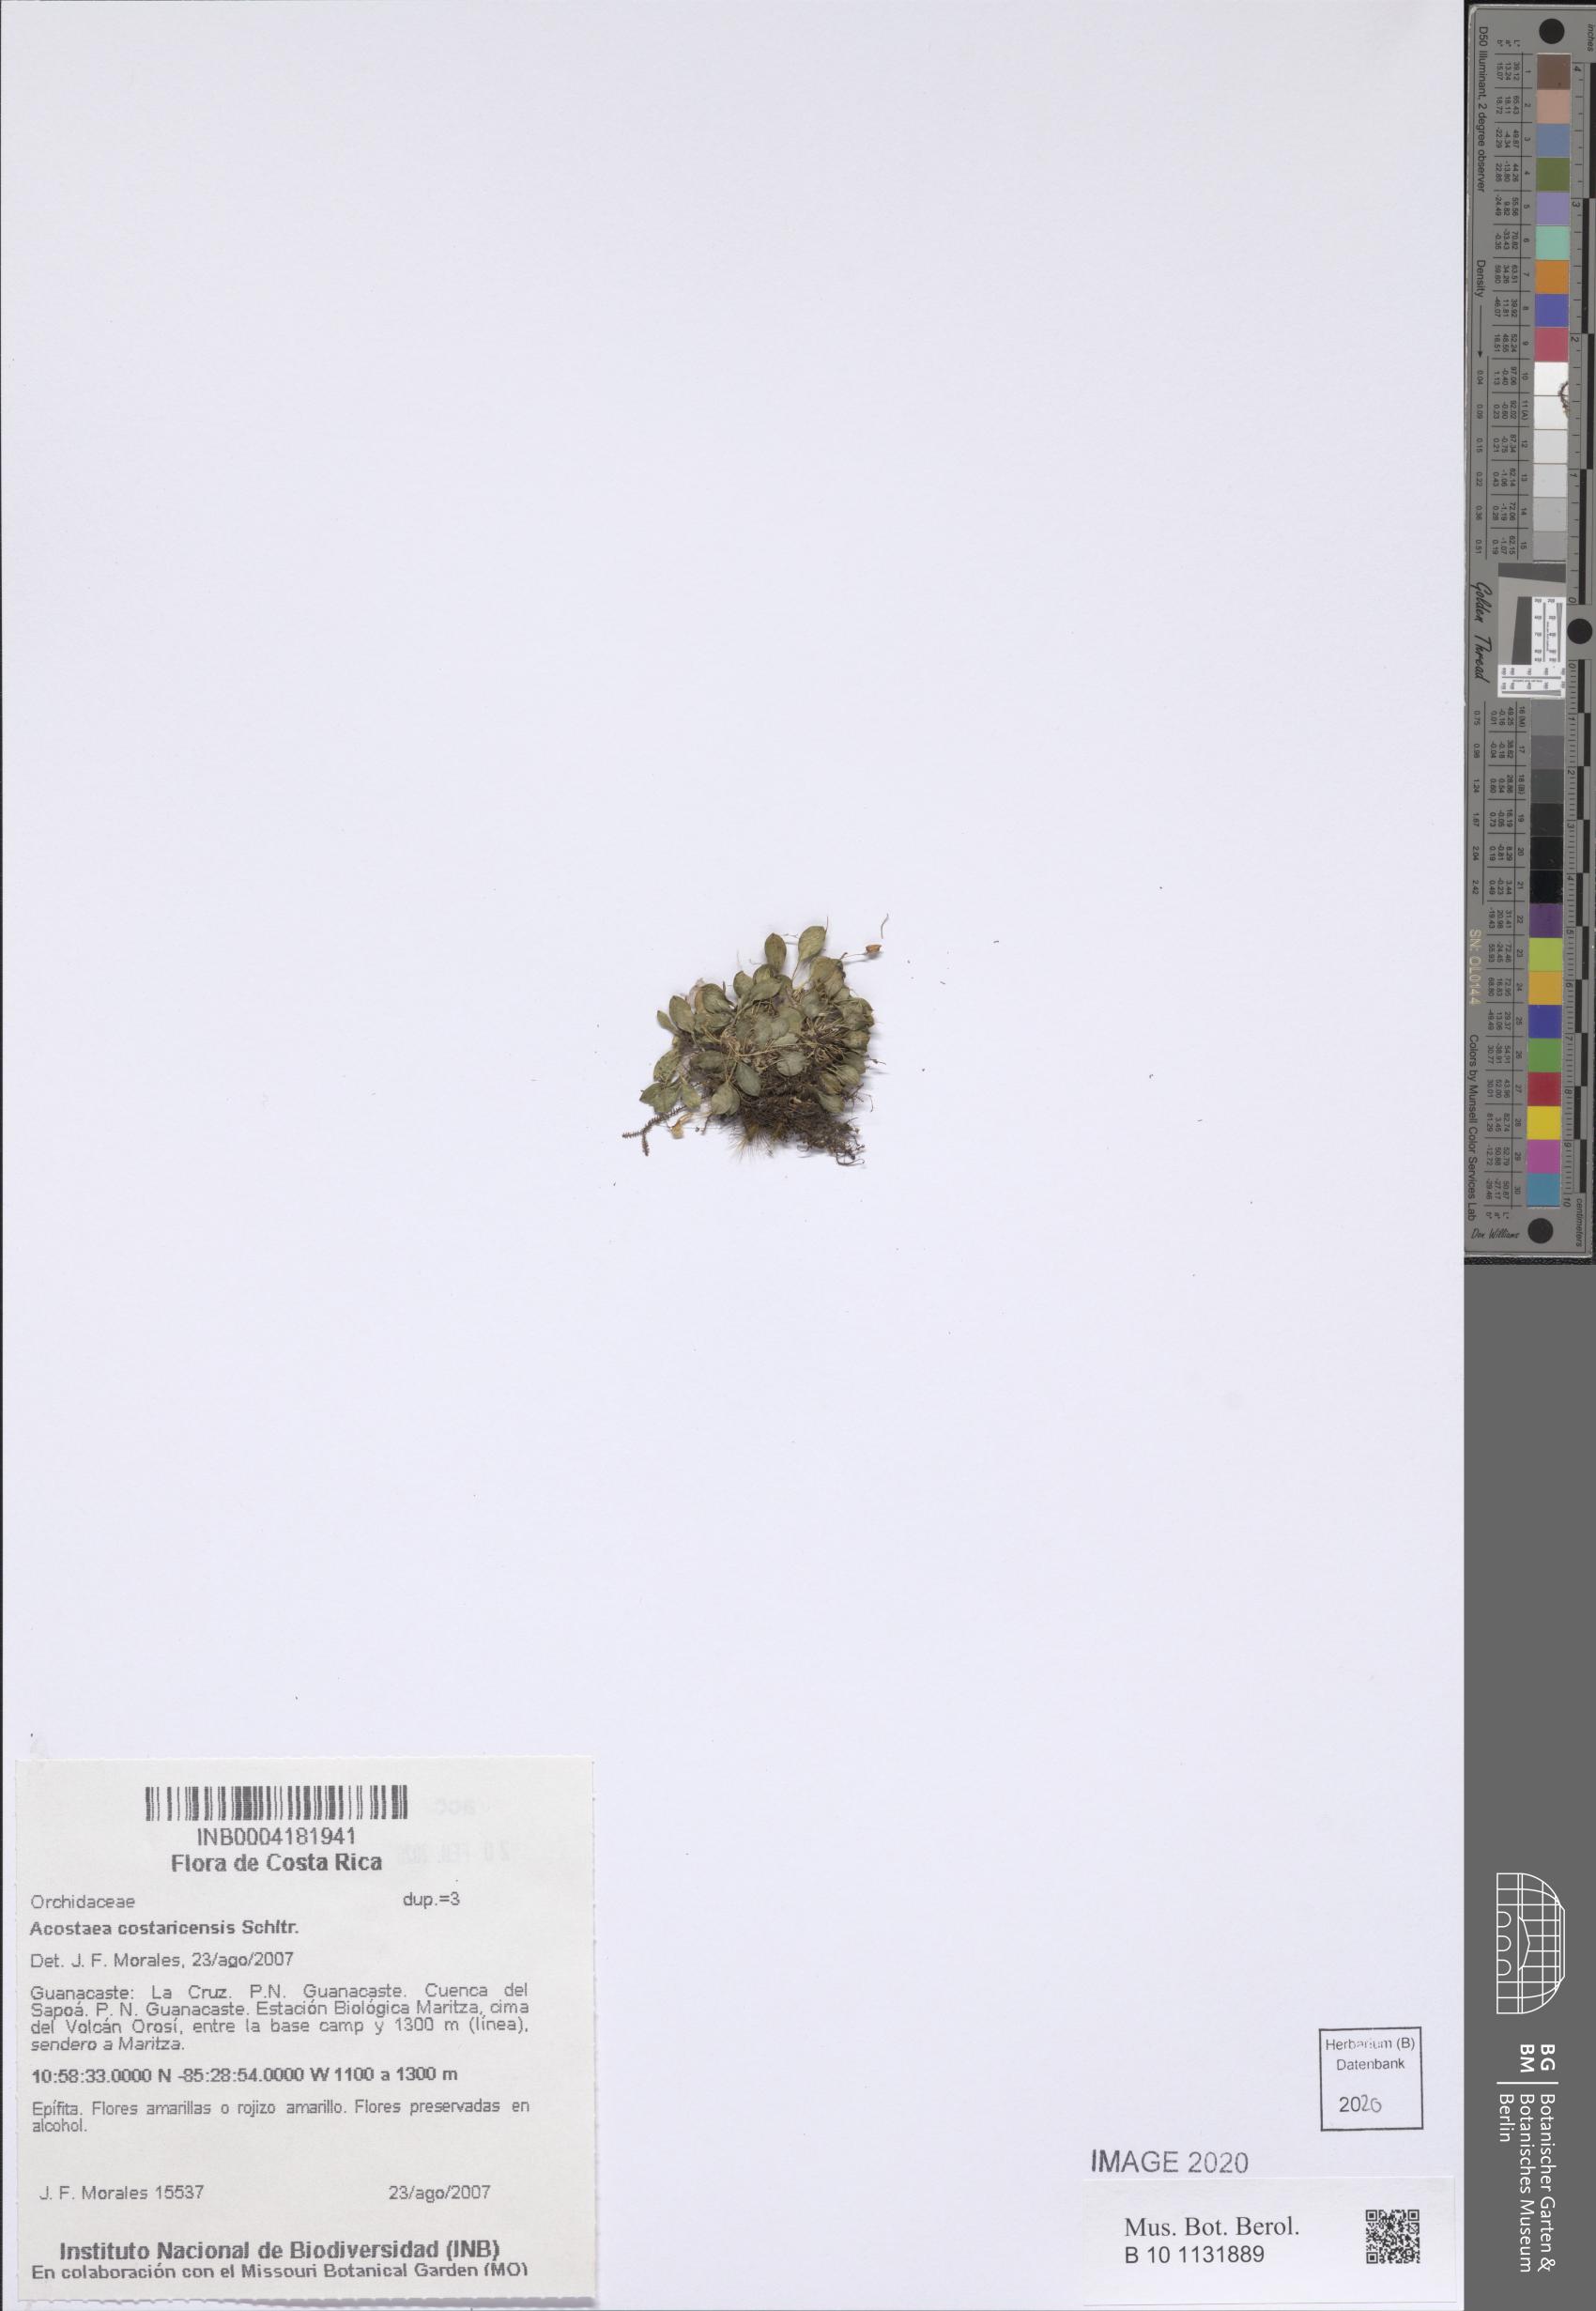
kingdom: Plantae
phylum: Tracheophyta
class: Liliopsida
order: Asparagales
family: Orchidaceae
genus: Specklinia
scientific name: Specklinia colombiana
